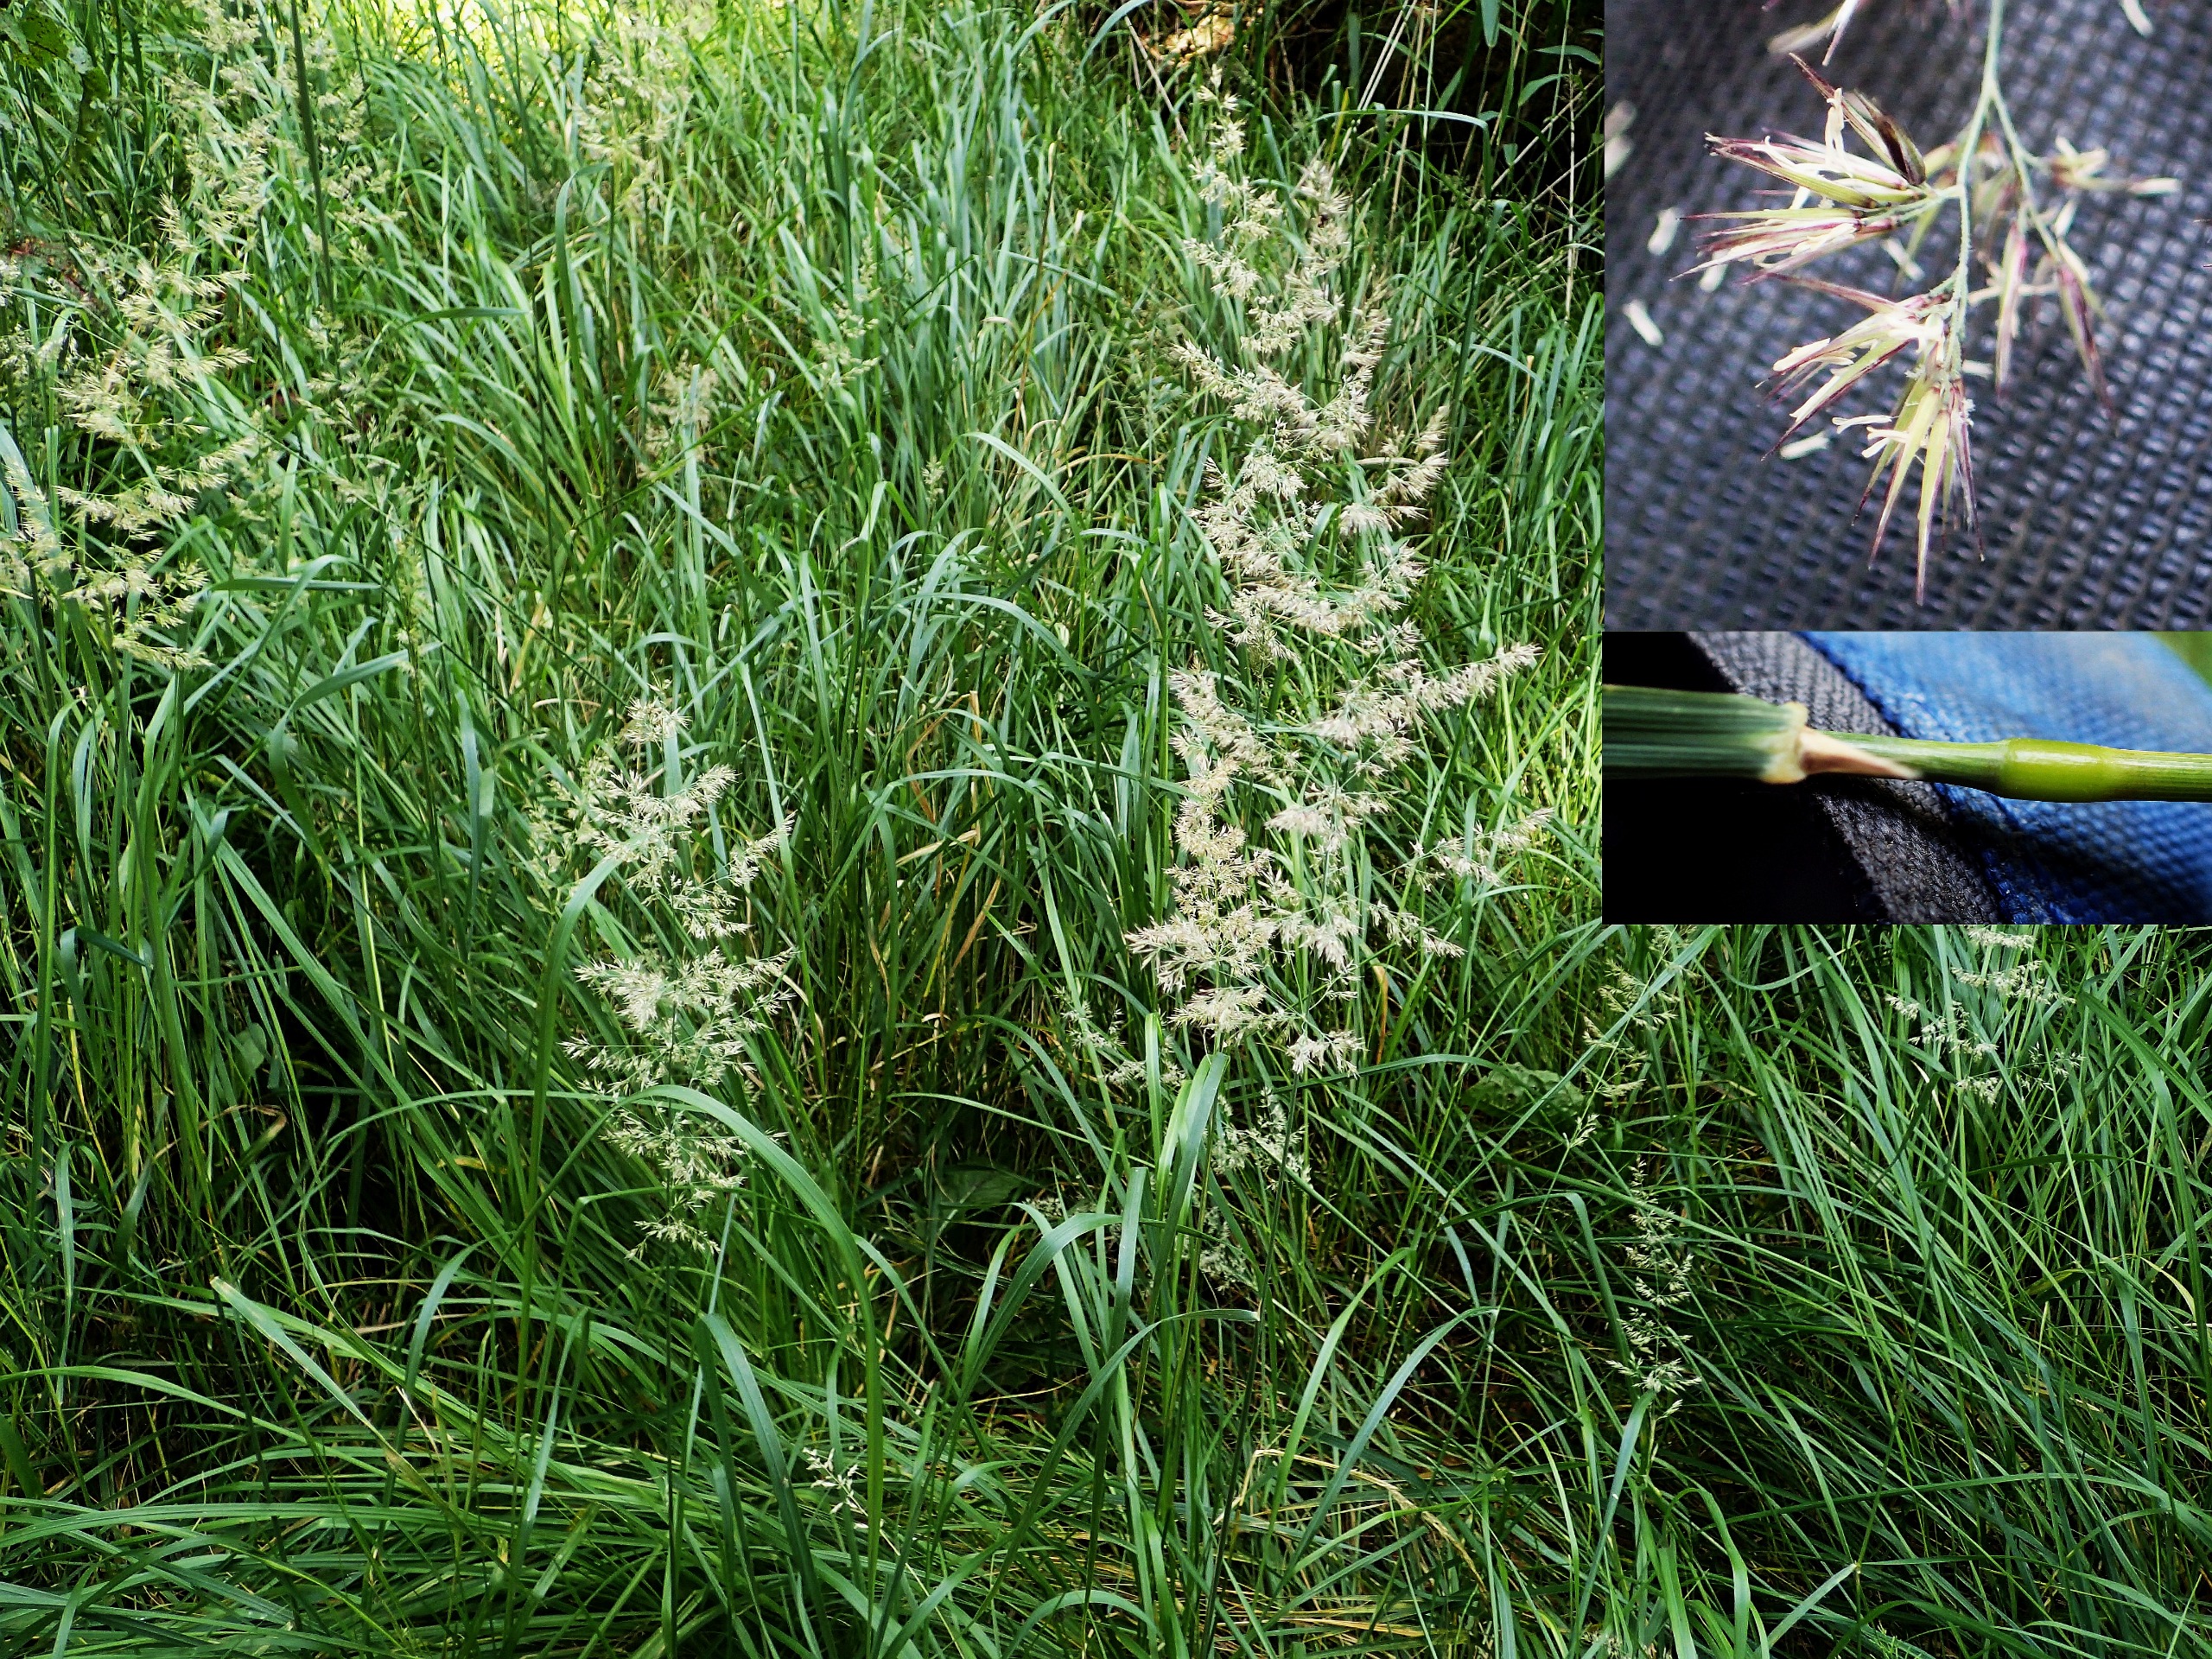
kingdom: Plantae
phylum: Tracheophyta
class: Liliopsida
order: Poales
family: Poaceae
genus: Calamagrostis
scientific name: Calamagrostis epigejos
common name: Bjerg-rørhvene
